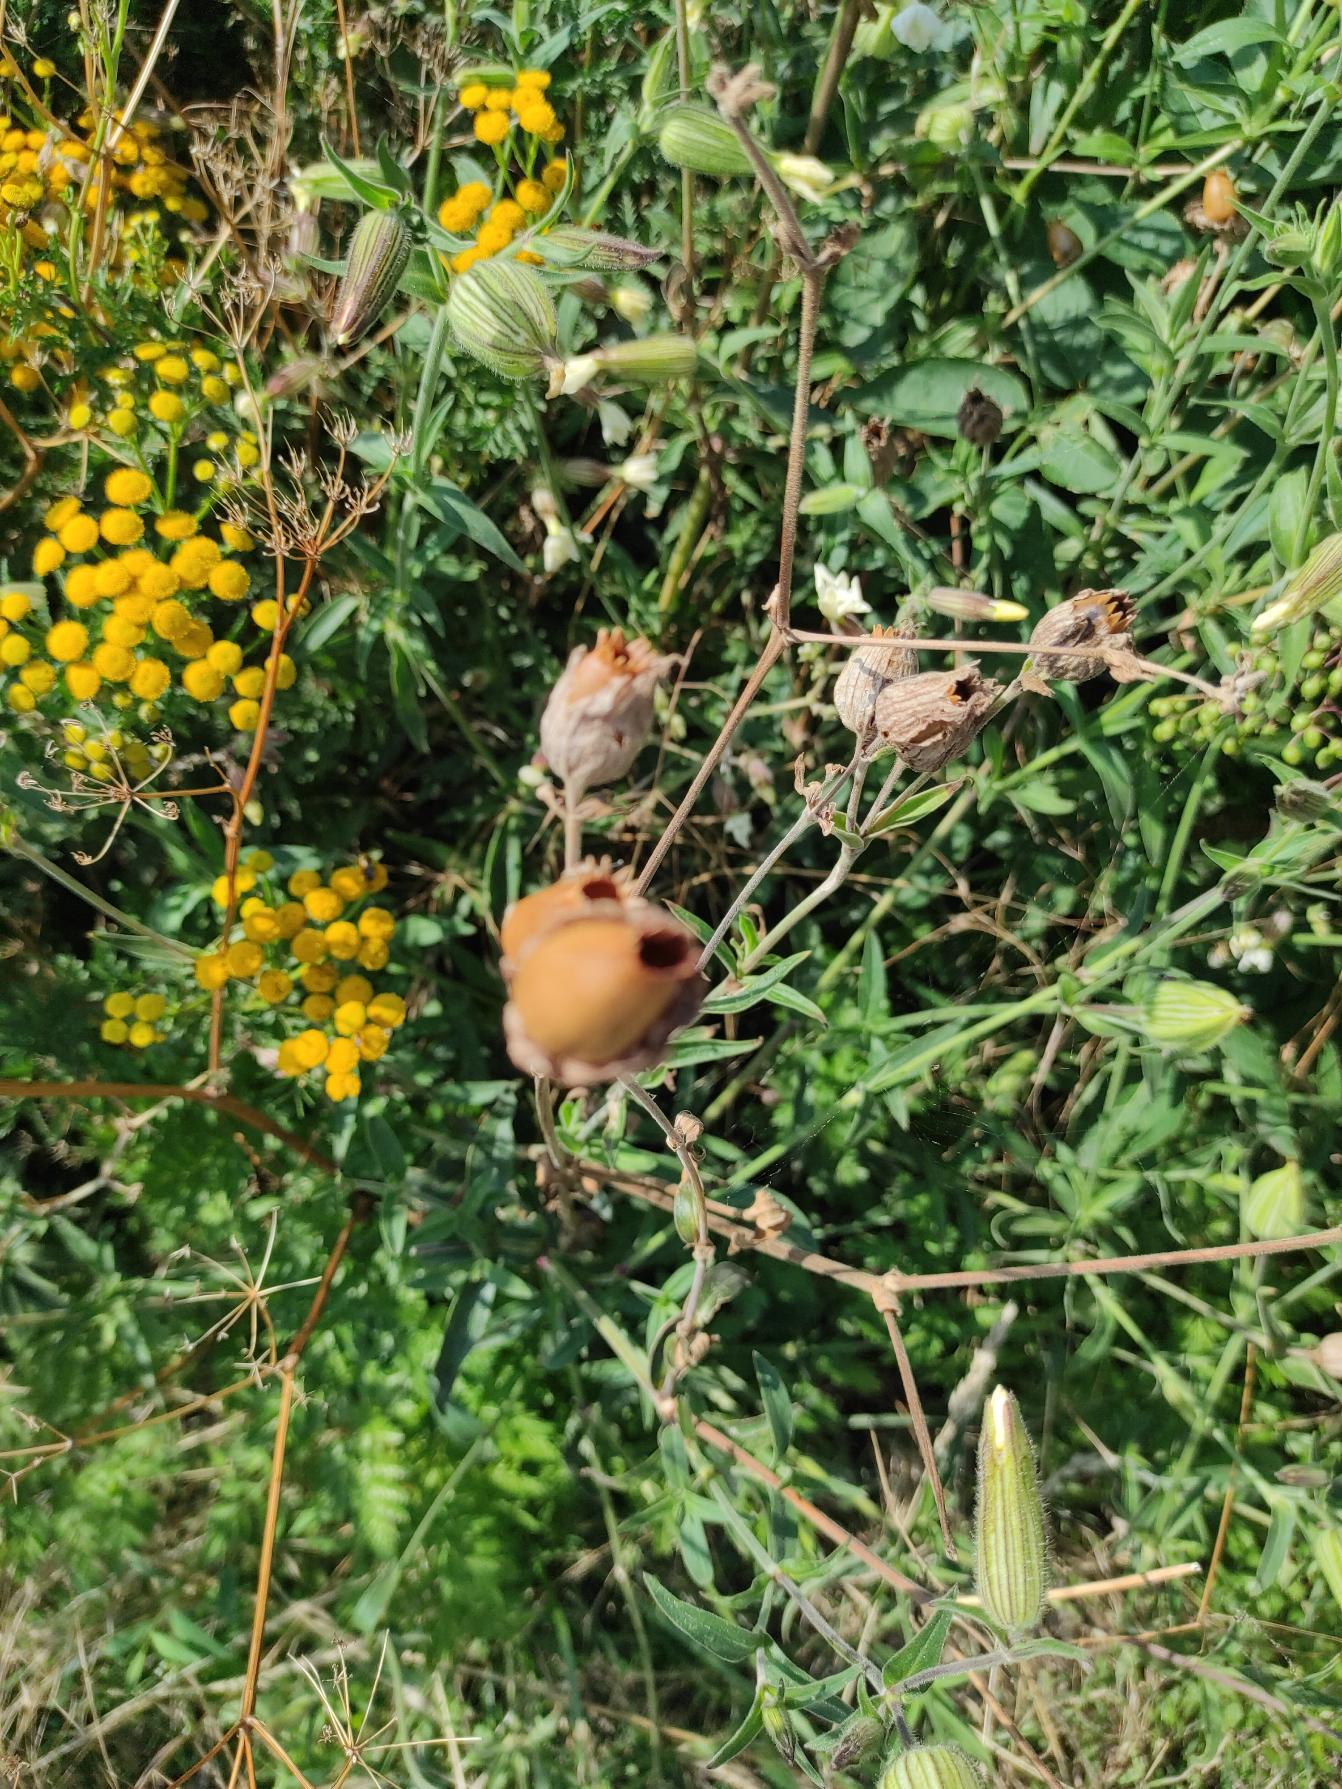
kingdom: Plantae
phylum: Tracheophyta
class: Magnoliopsida
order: Caryophyllales
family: Caryophyllaceae
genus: Silene
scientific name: Silene latifolia
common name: Aftenpragtstjerne
